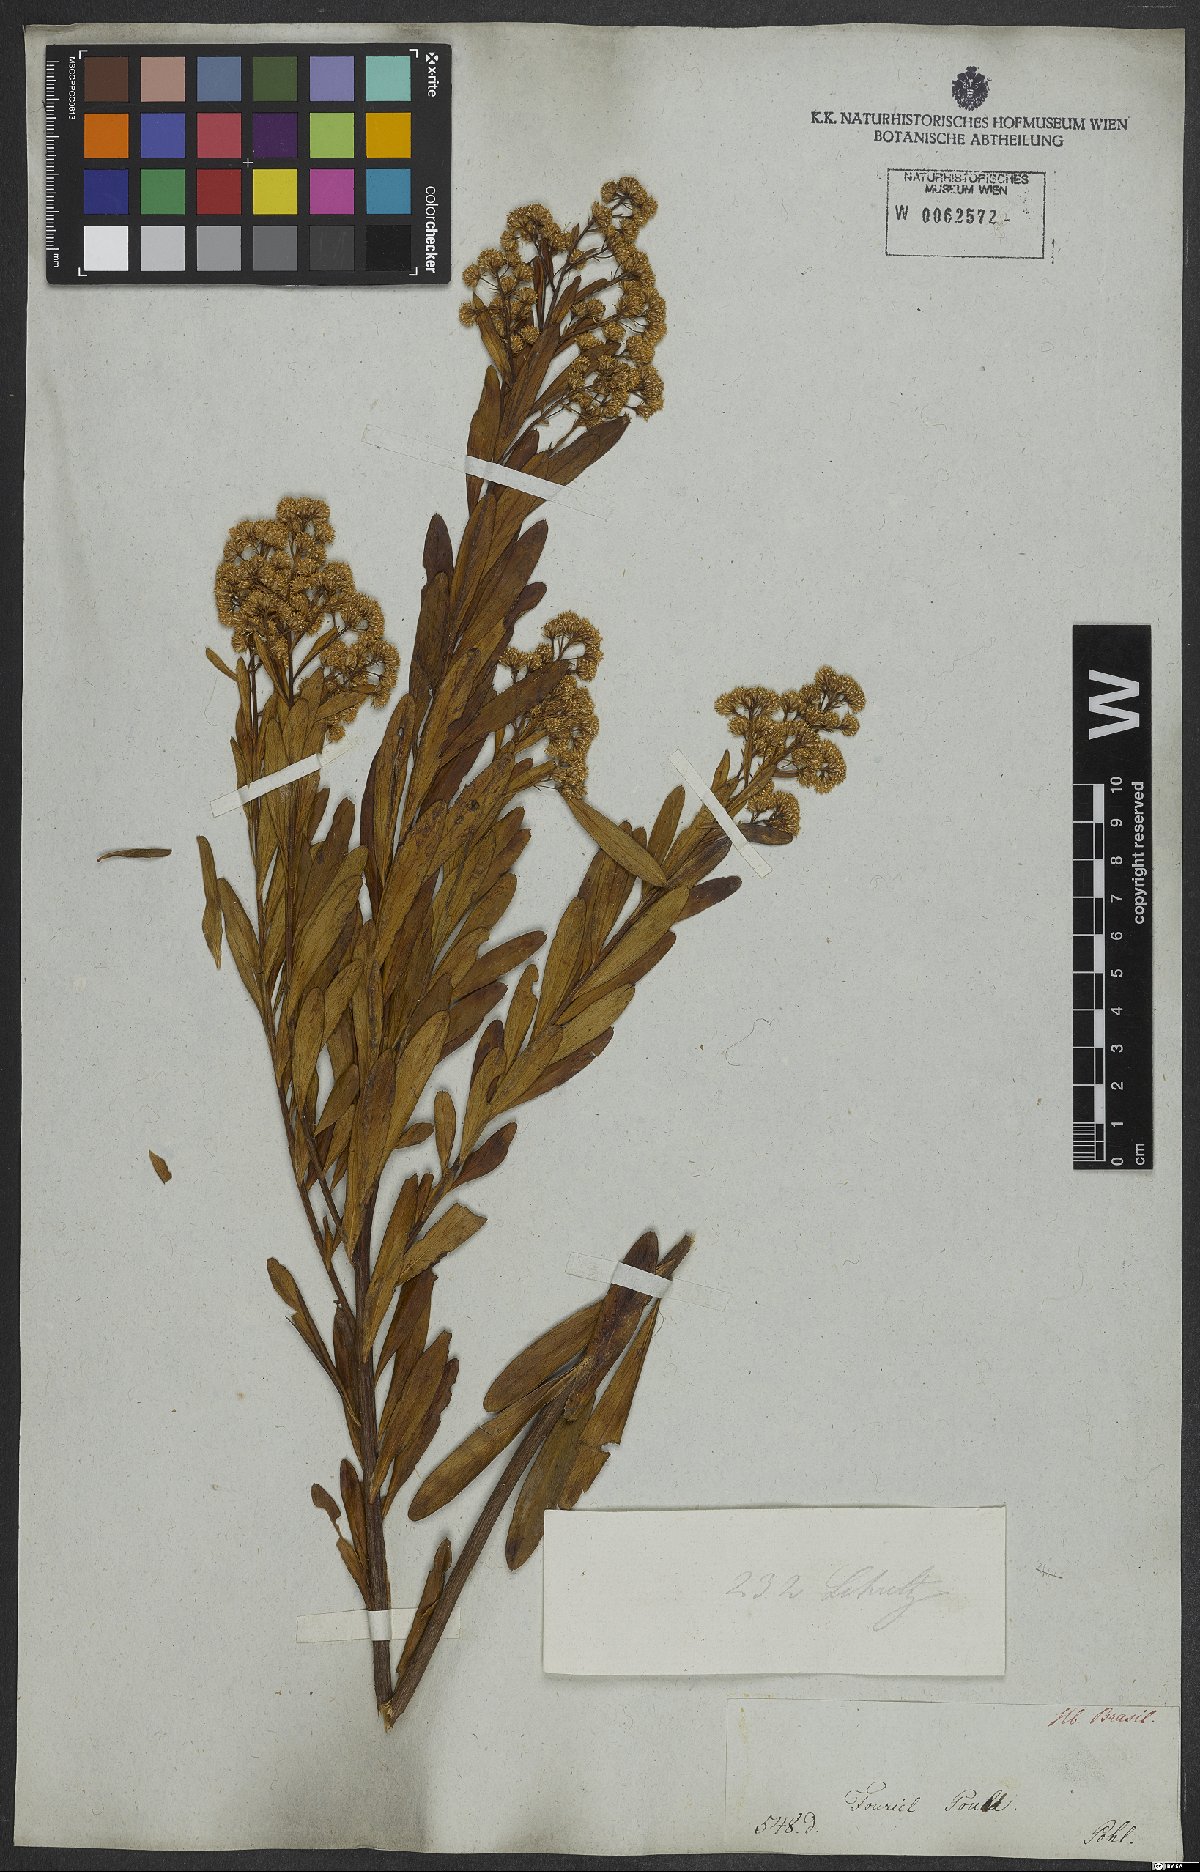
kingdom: Plantae
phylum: Tracheophyta
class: Magnoliopsida
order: Asterales
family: Asteraceae
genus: Baccharis
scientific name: Baccharis ligustrina
